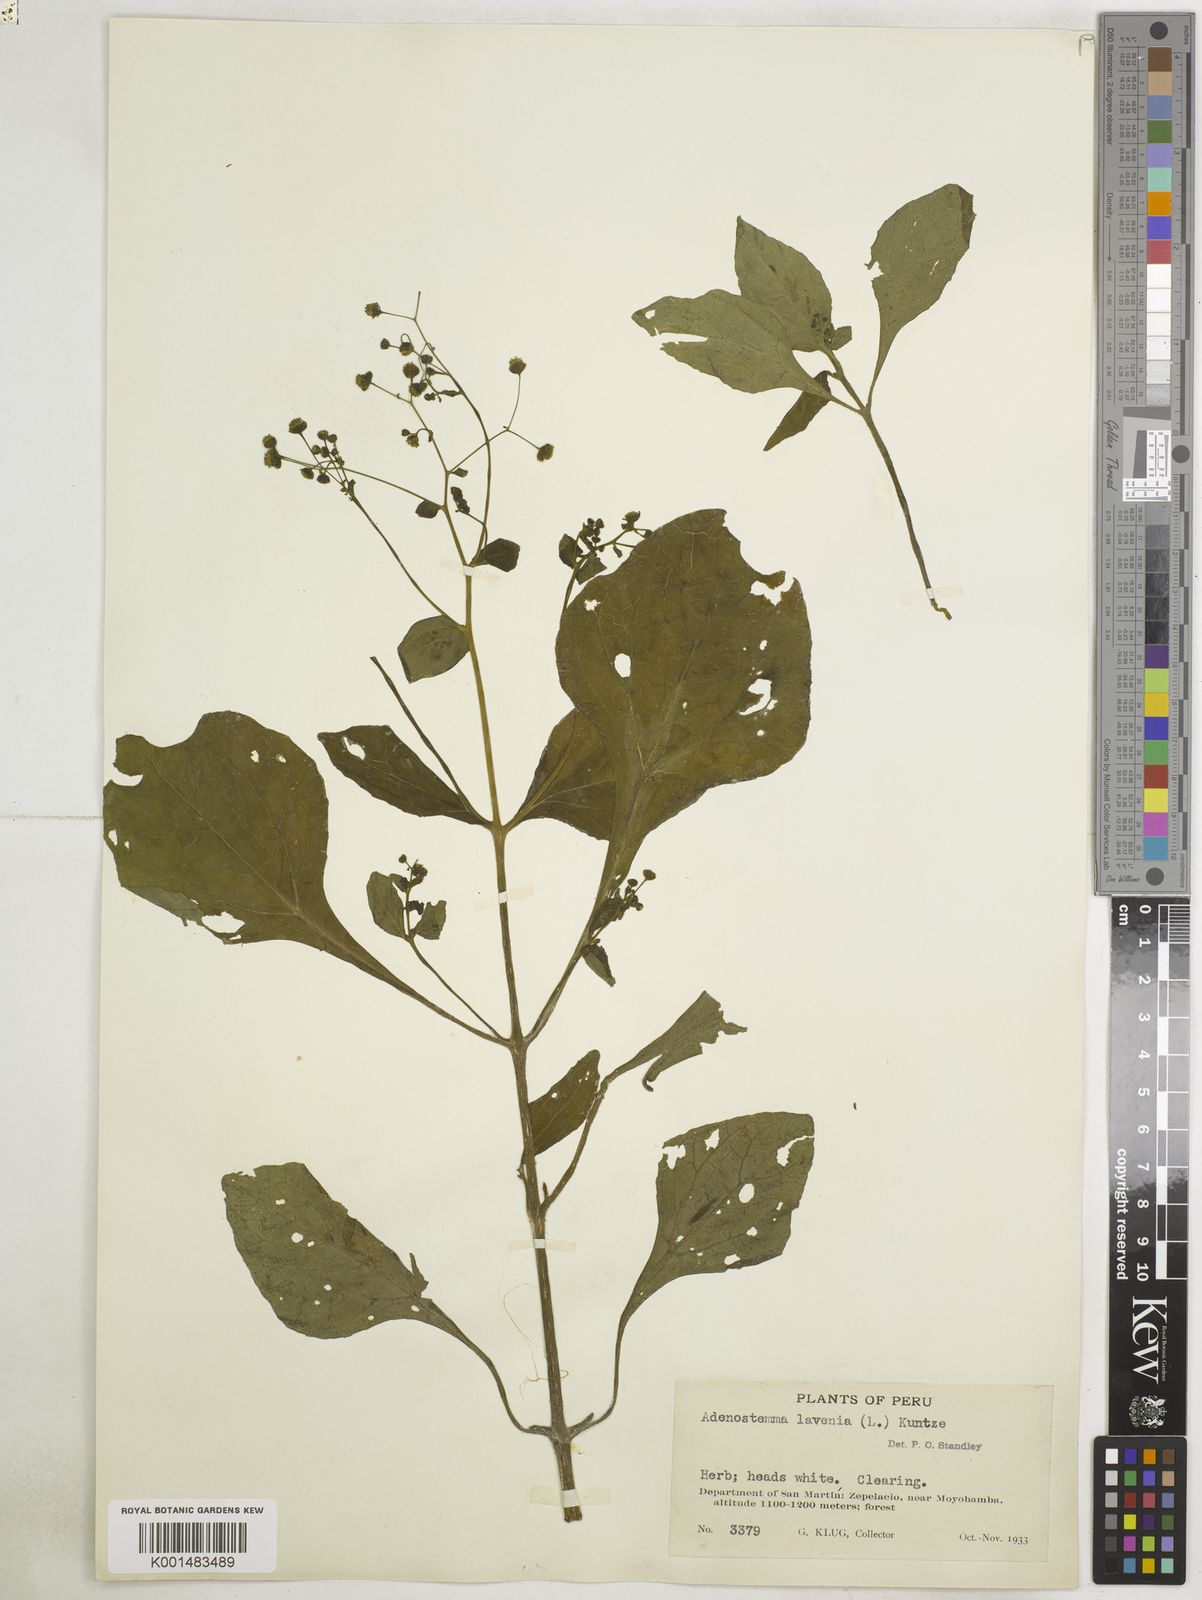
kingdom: Plantae
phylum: Tracheophyta
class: Magnoliopsida
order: Asterales
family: Asteraceae
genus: Adenostemma
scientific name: Adenostemma lavenia
